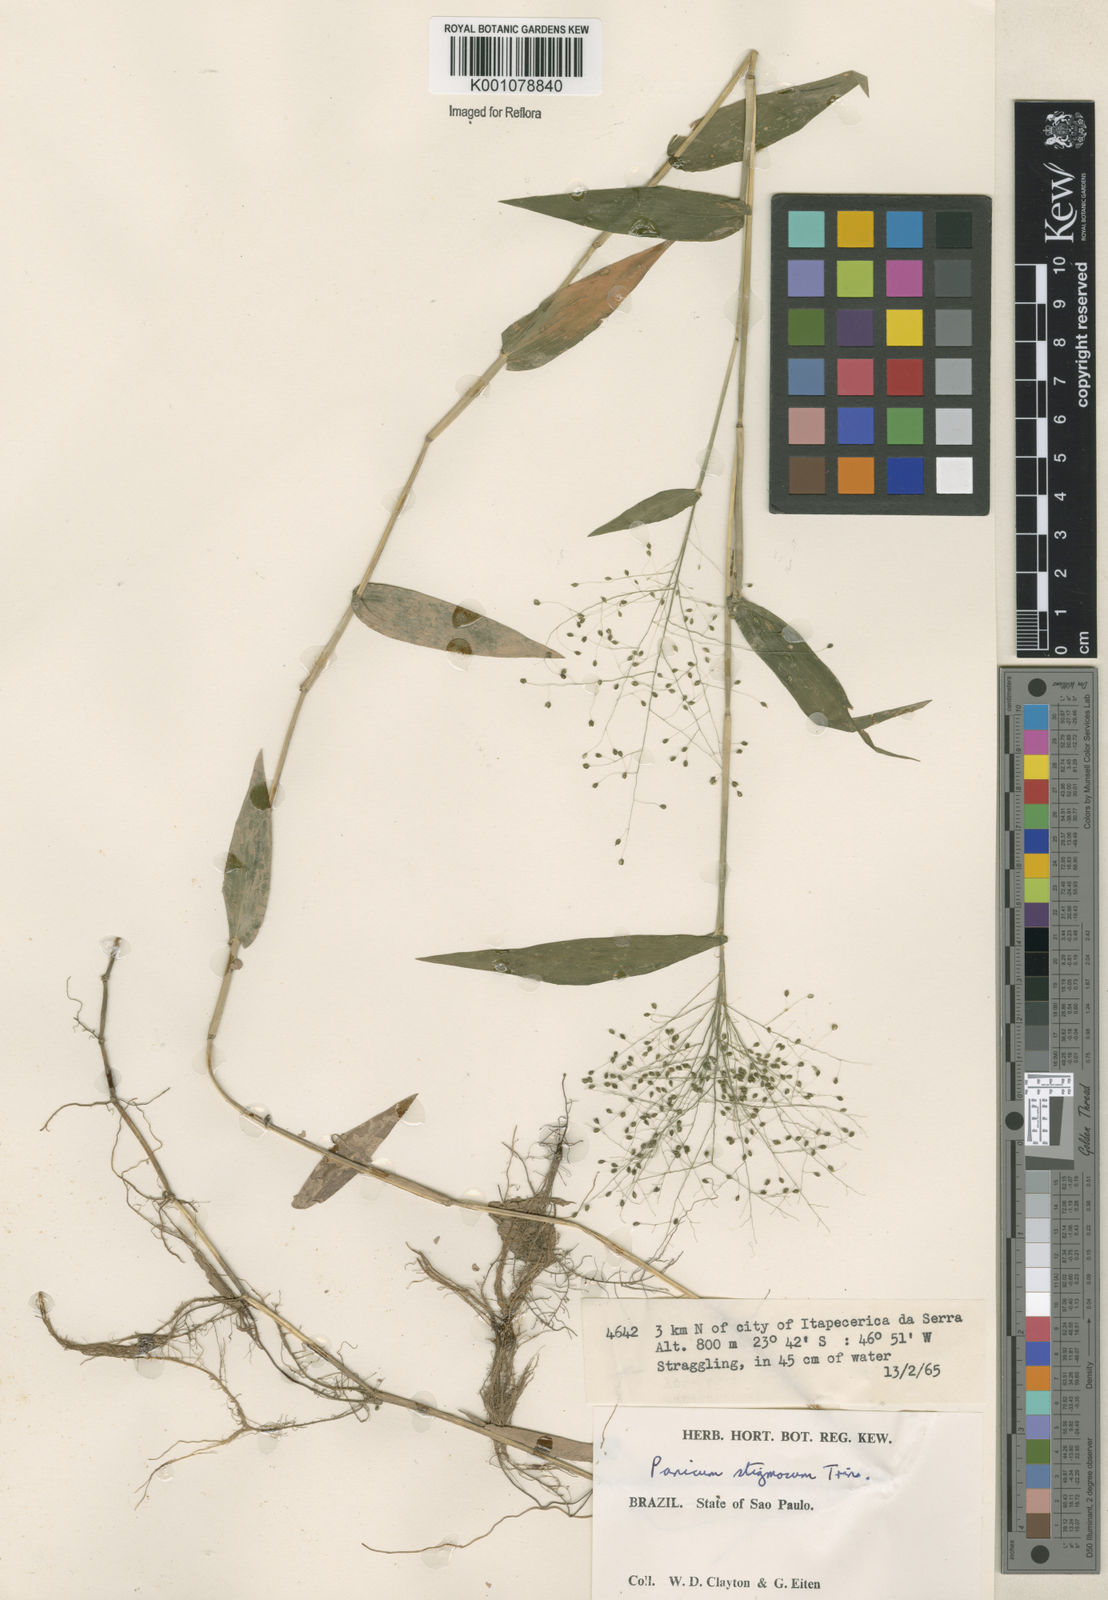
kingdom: Plantae
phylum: Tracheophyta
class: Liliopsida
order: Poales
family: Poaceae
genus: Trichanthecium
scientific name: Trichanthecium schwackeanum
